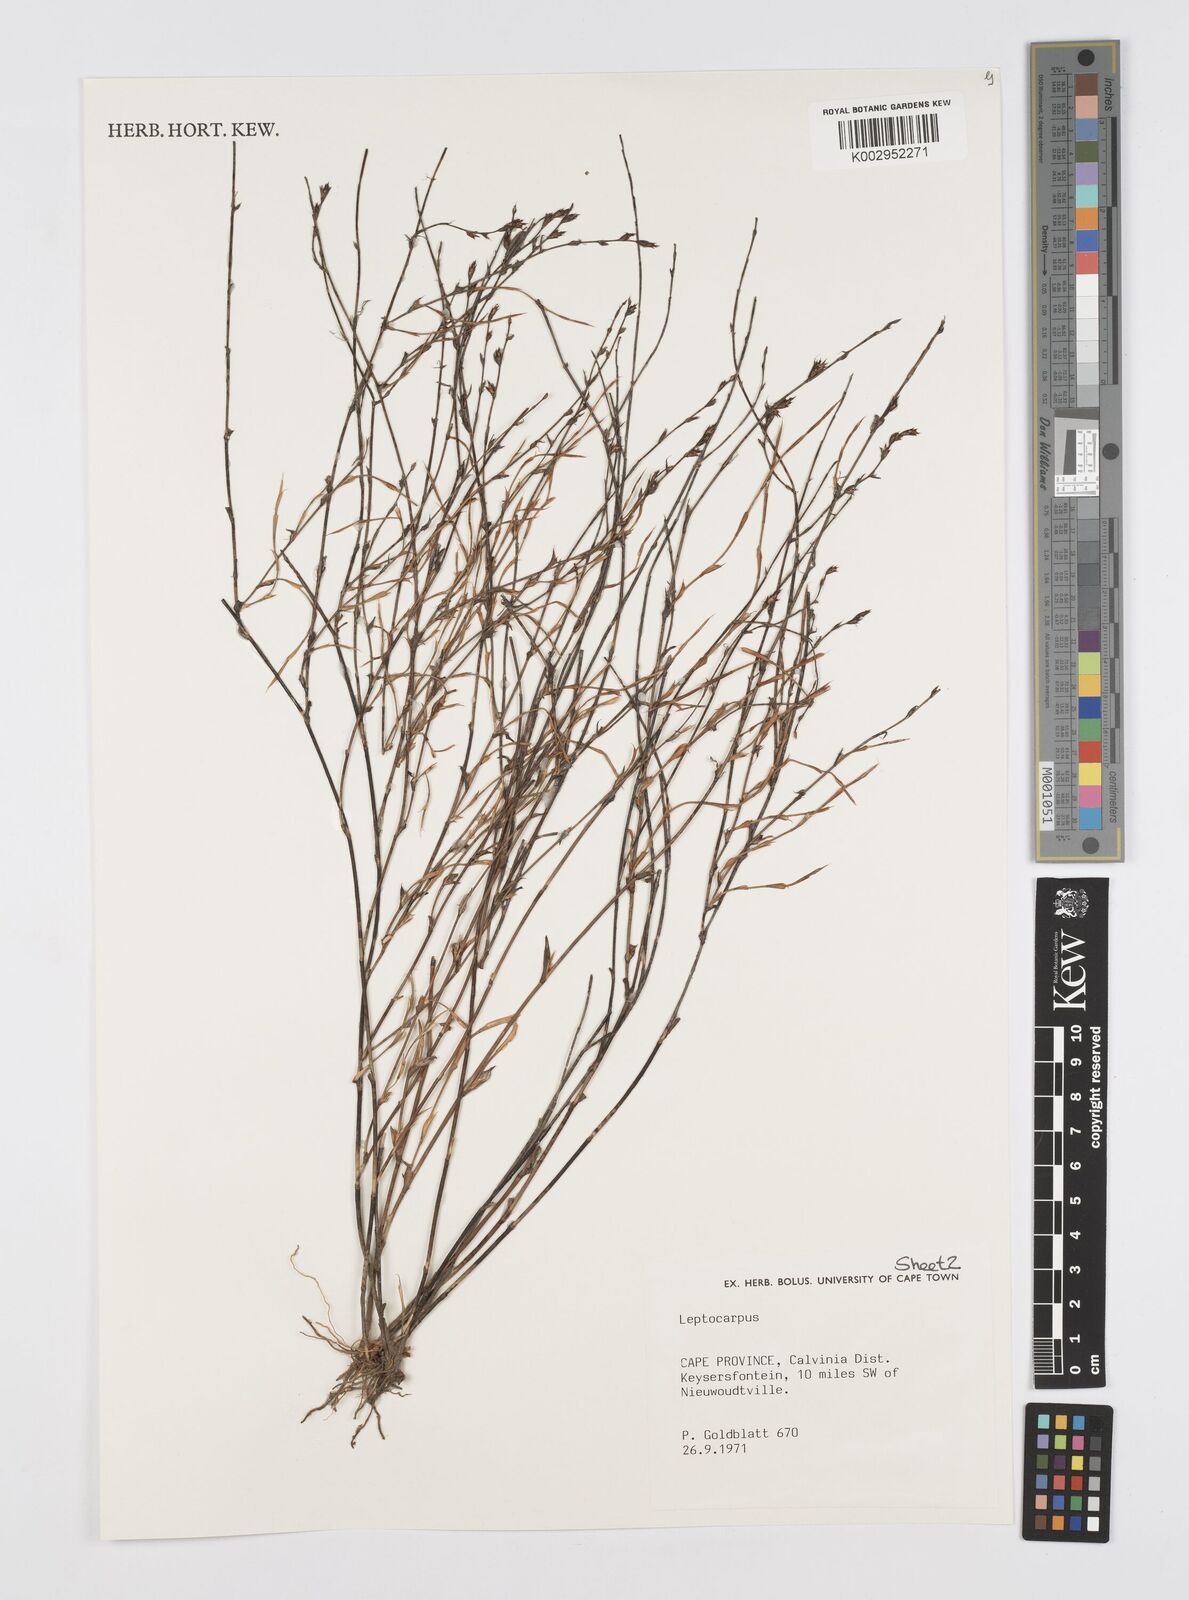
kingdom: Plantae
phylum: Tracheophyta
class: Liliopsida
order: Poales
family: Restionaceae
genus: Restio
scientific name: Restio
